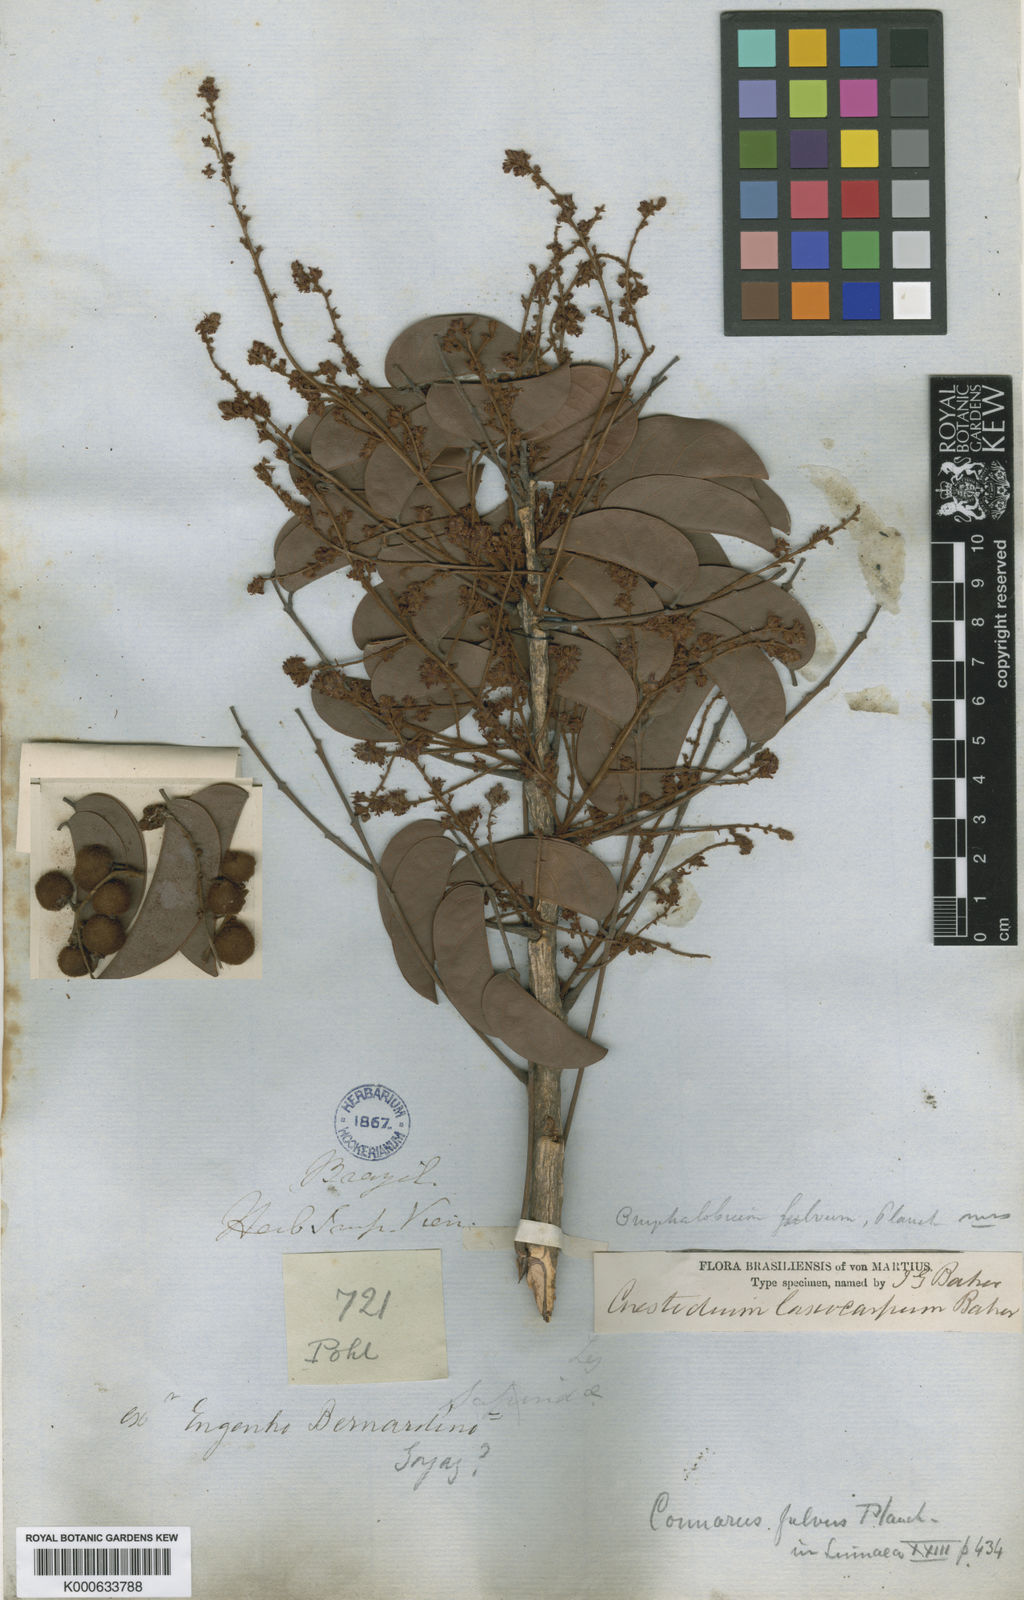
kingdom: Plantae
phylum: Tracheophyta
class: Magnoliopsida
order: Oxalidales
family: Connaraceae
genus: Connarus
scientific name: Connarus suberosus
